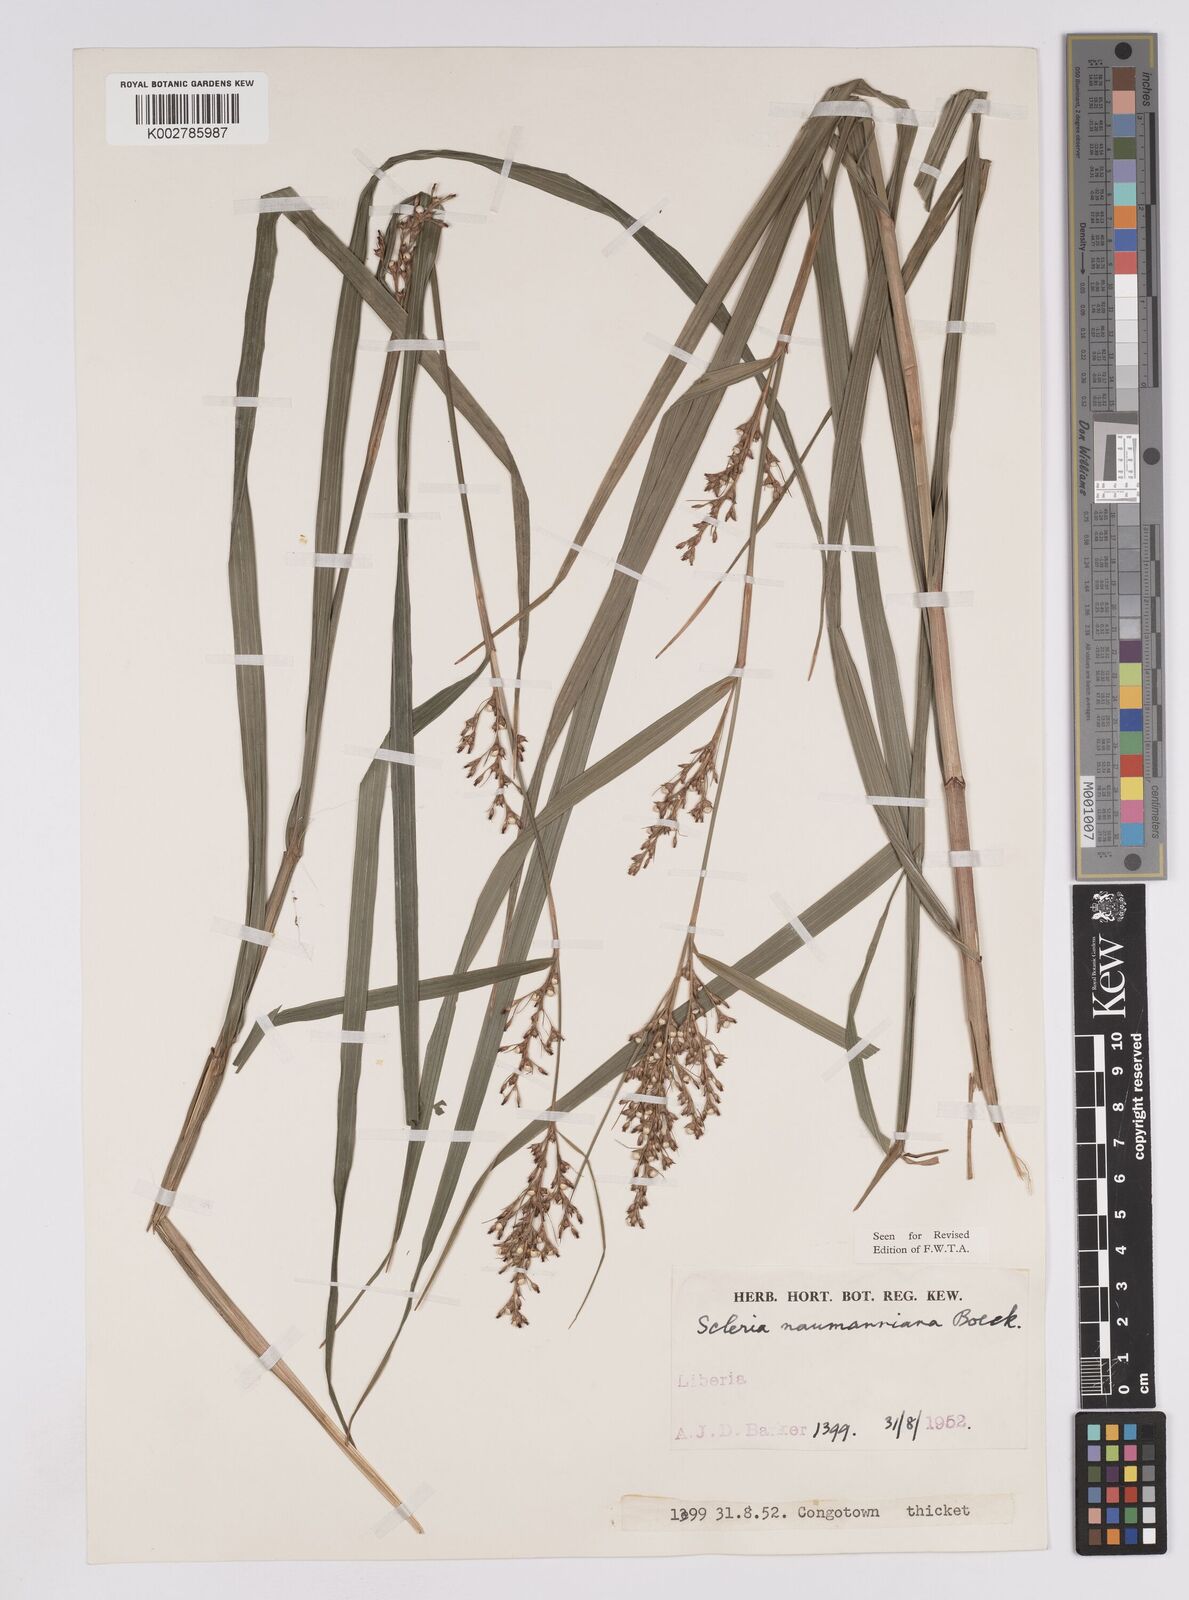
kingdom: Plantae
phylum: Tracheophyta
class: Liliopsida
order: Poales
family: Cyperaceae
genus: Scleria
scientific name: Scleria naumanniana
